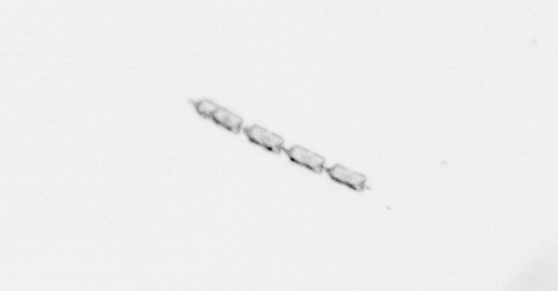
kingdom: Chromista
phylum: Ochrophyta
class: Bacillariophyceae
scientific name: Bacillariophyceae
